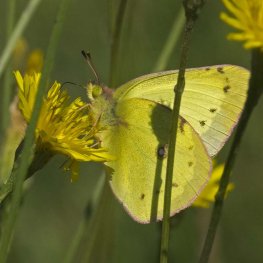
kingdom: Animalia
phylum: Arthropoda
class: Insecta
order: Lepidoptera
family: Pieridae
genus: Colias
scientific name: Colias philodice
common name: Clouded Sulphur
